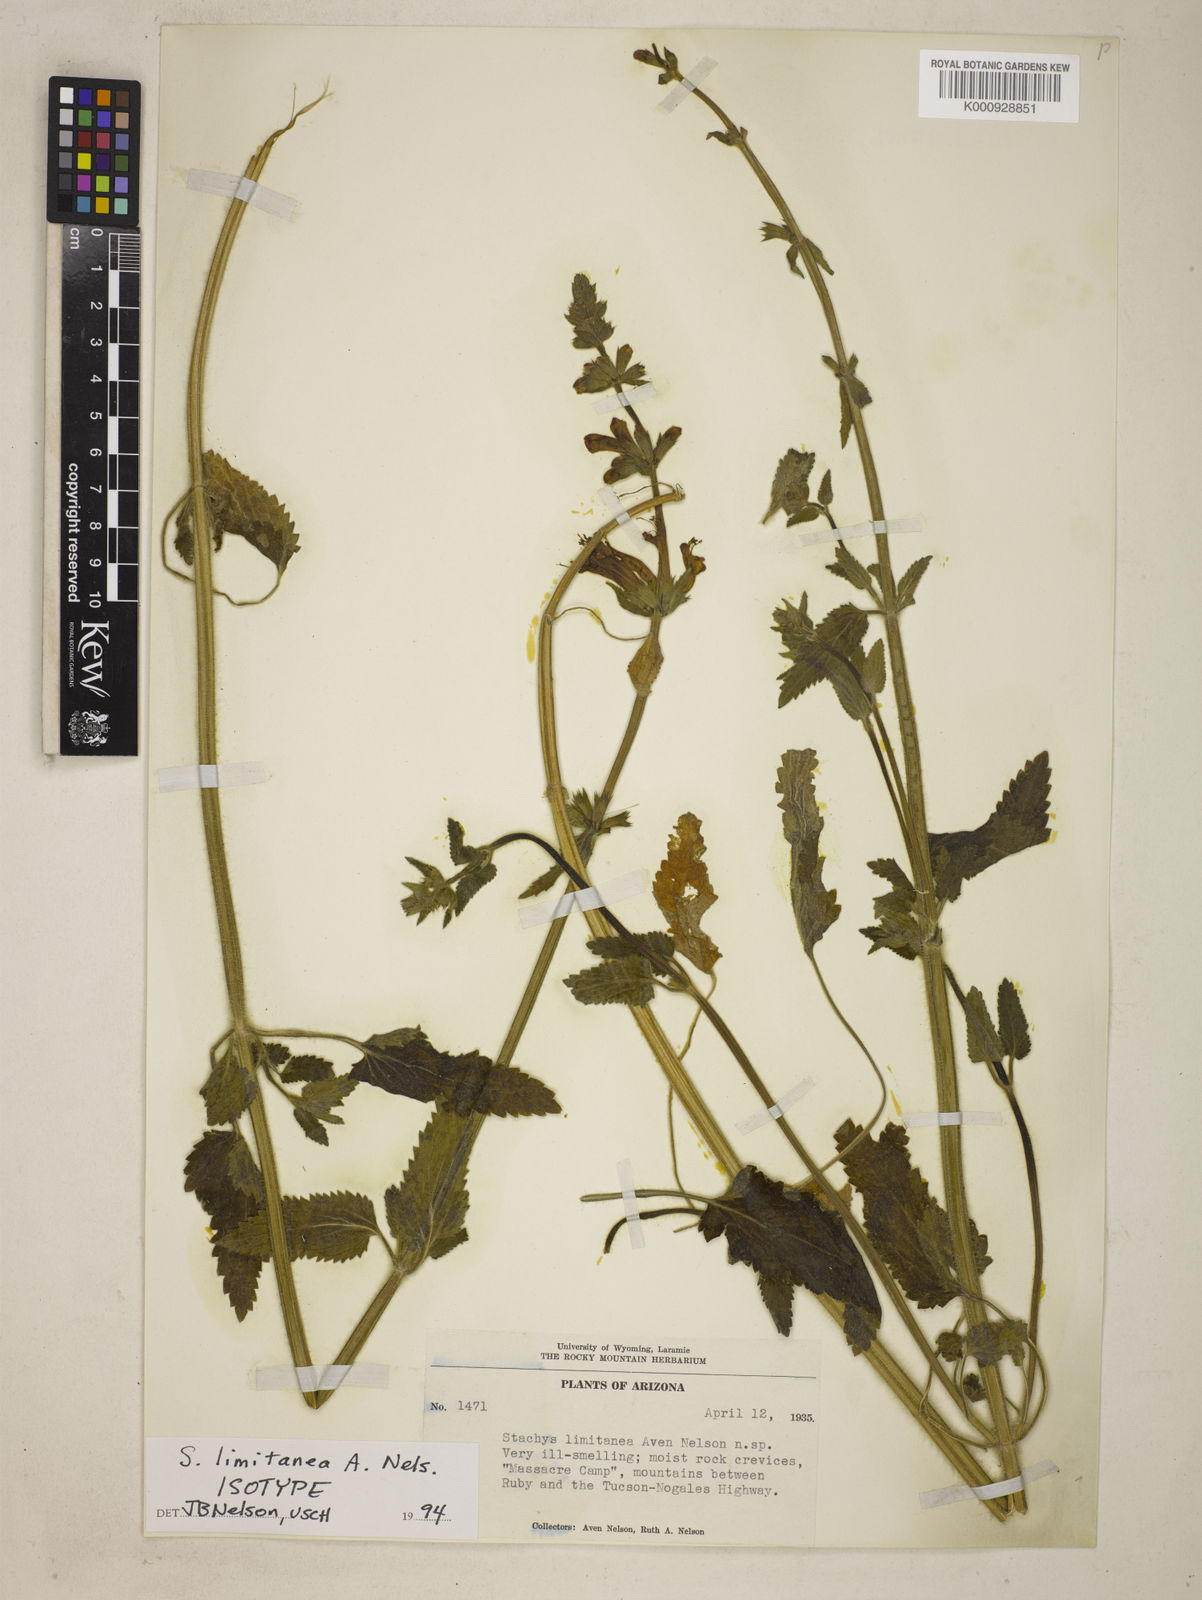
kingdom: Plantae
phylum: Tracheophyta
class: Magnoliopsida
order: Lamiales
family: Lamiaceae
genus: Stachys
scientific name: Stachys coccinea
